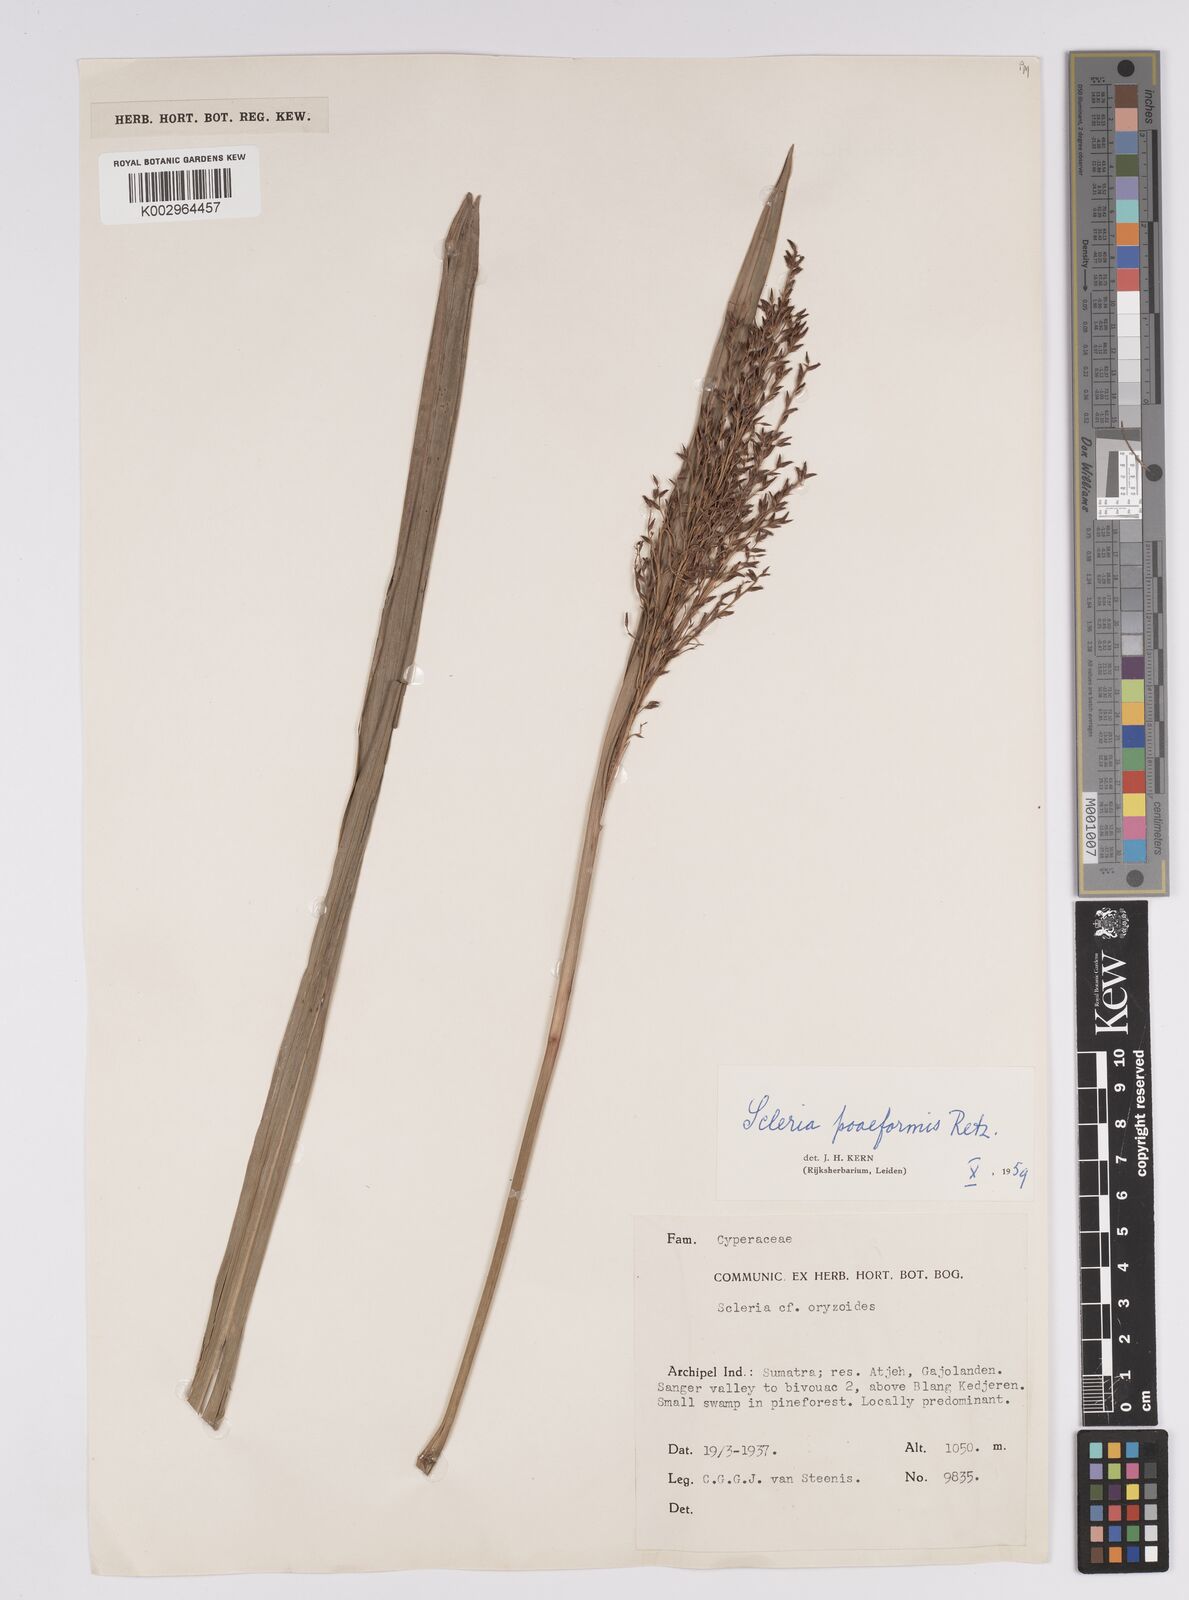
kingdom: Plantae
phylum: Tracheophyta
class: Liliopsida
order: Poales
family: Cyperaceae
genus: Scleria
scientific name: Scleria poiformis
